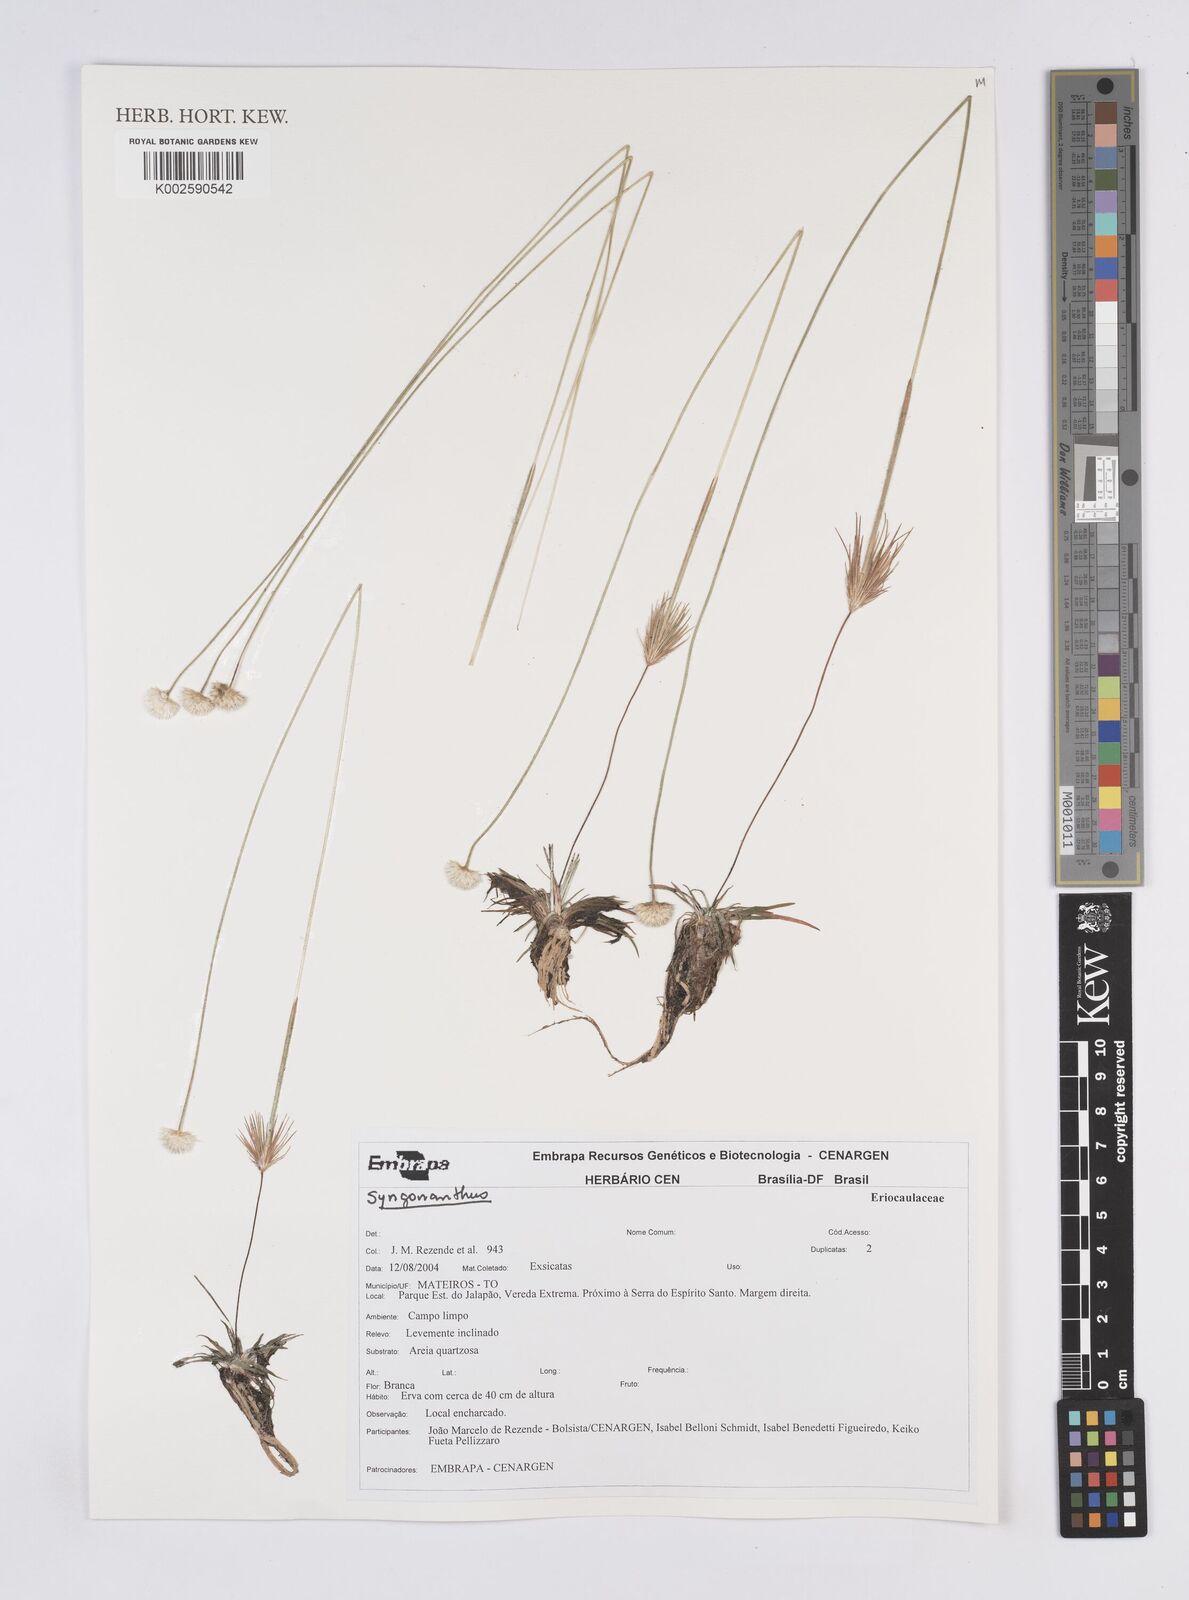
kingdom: Plantae
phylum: Tracheophyta
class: Liliopsida
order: Poales
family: Eriocaulaceae
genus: Syngonanthus
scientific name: Syngonanthus
